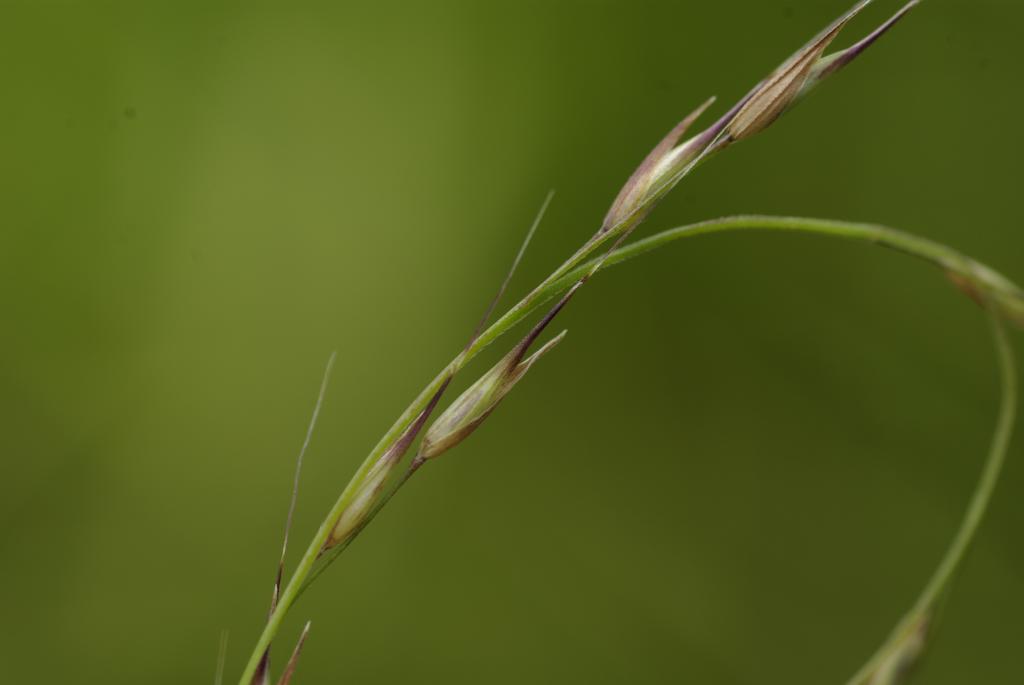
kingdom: Plantae
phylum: Tracheophyta
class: Liliopsida
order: Poales
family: Poaceae
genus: Arundinella
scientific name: Arundinella setosa
